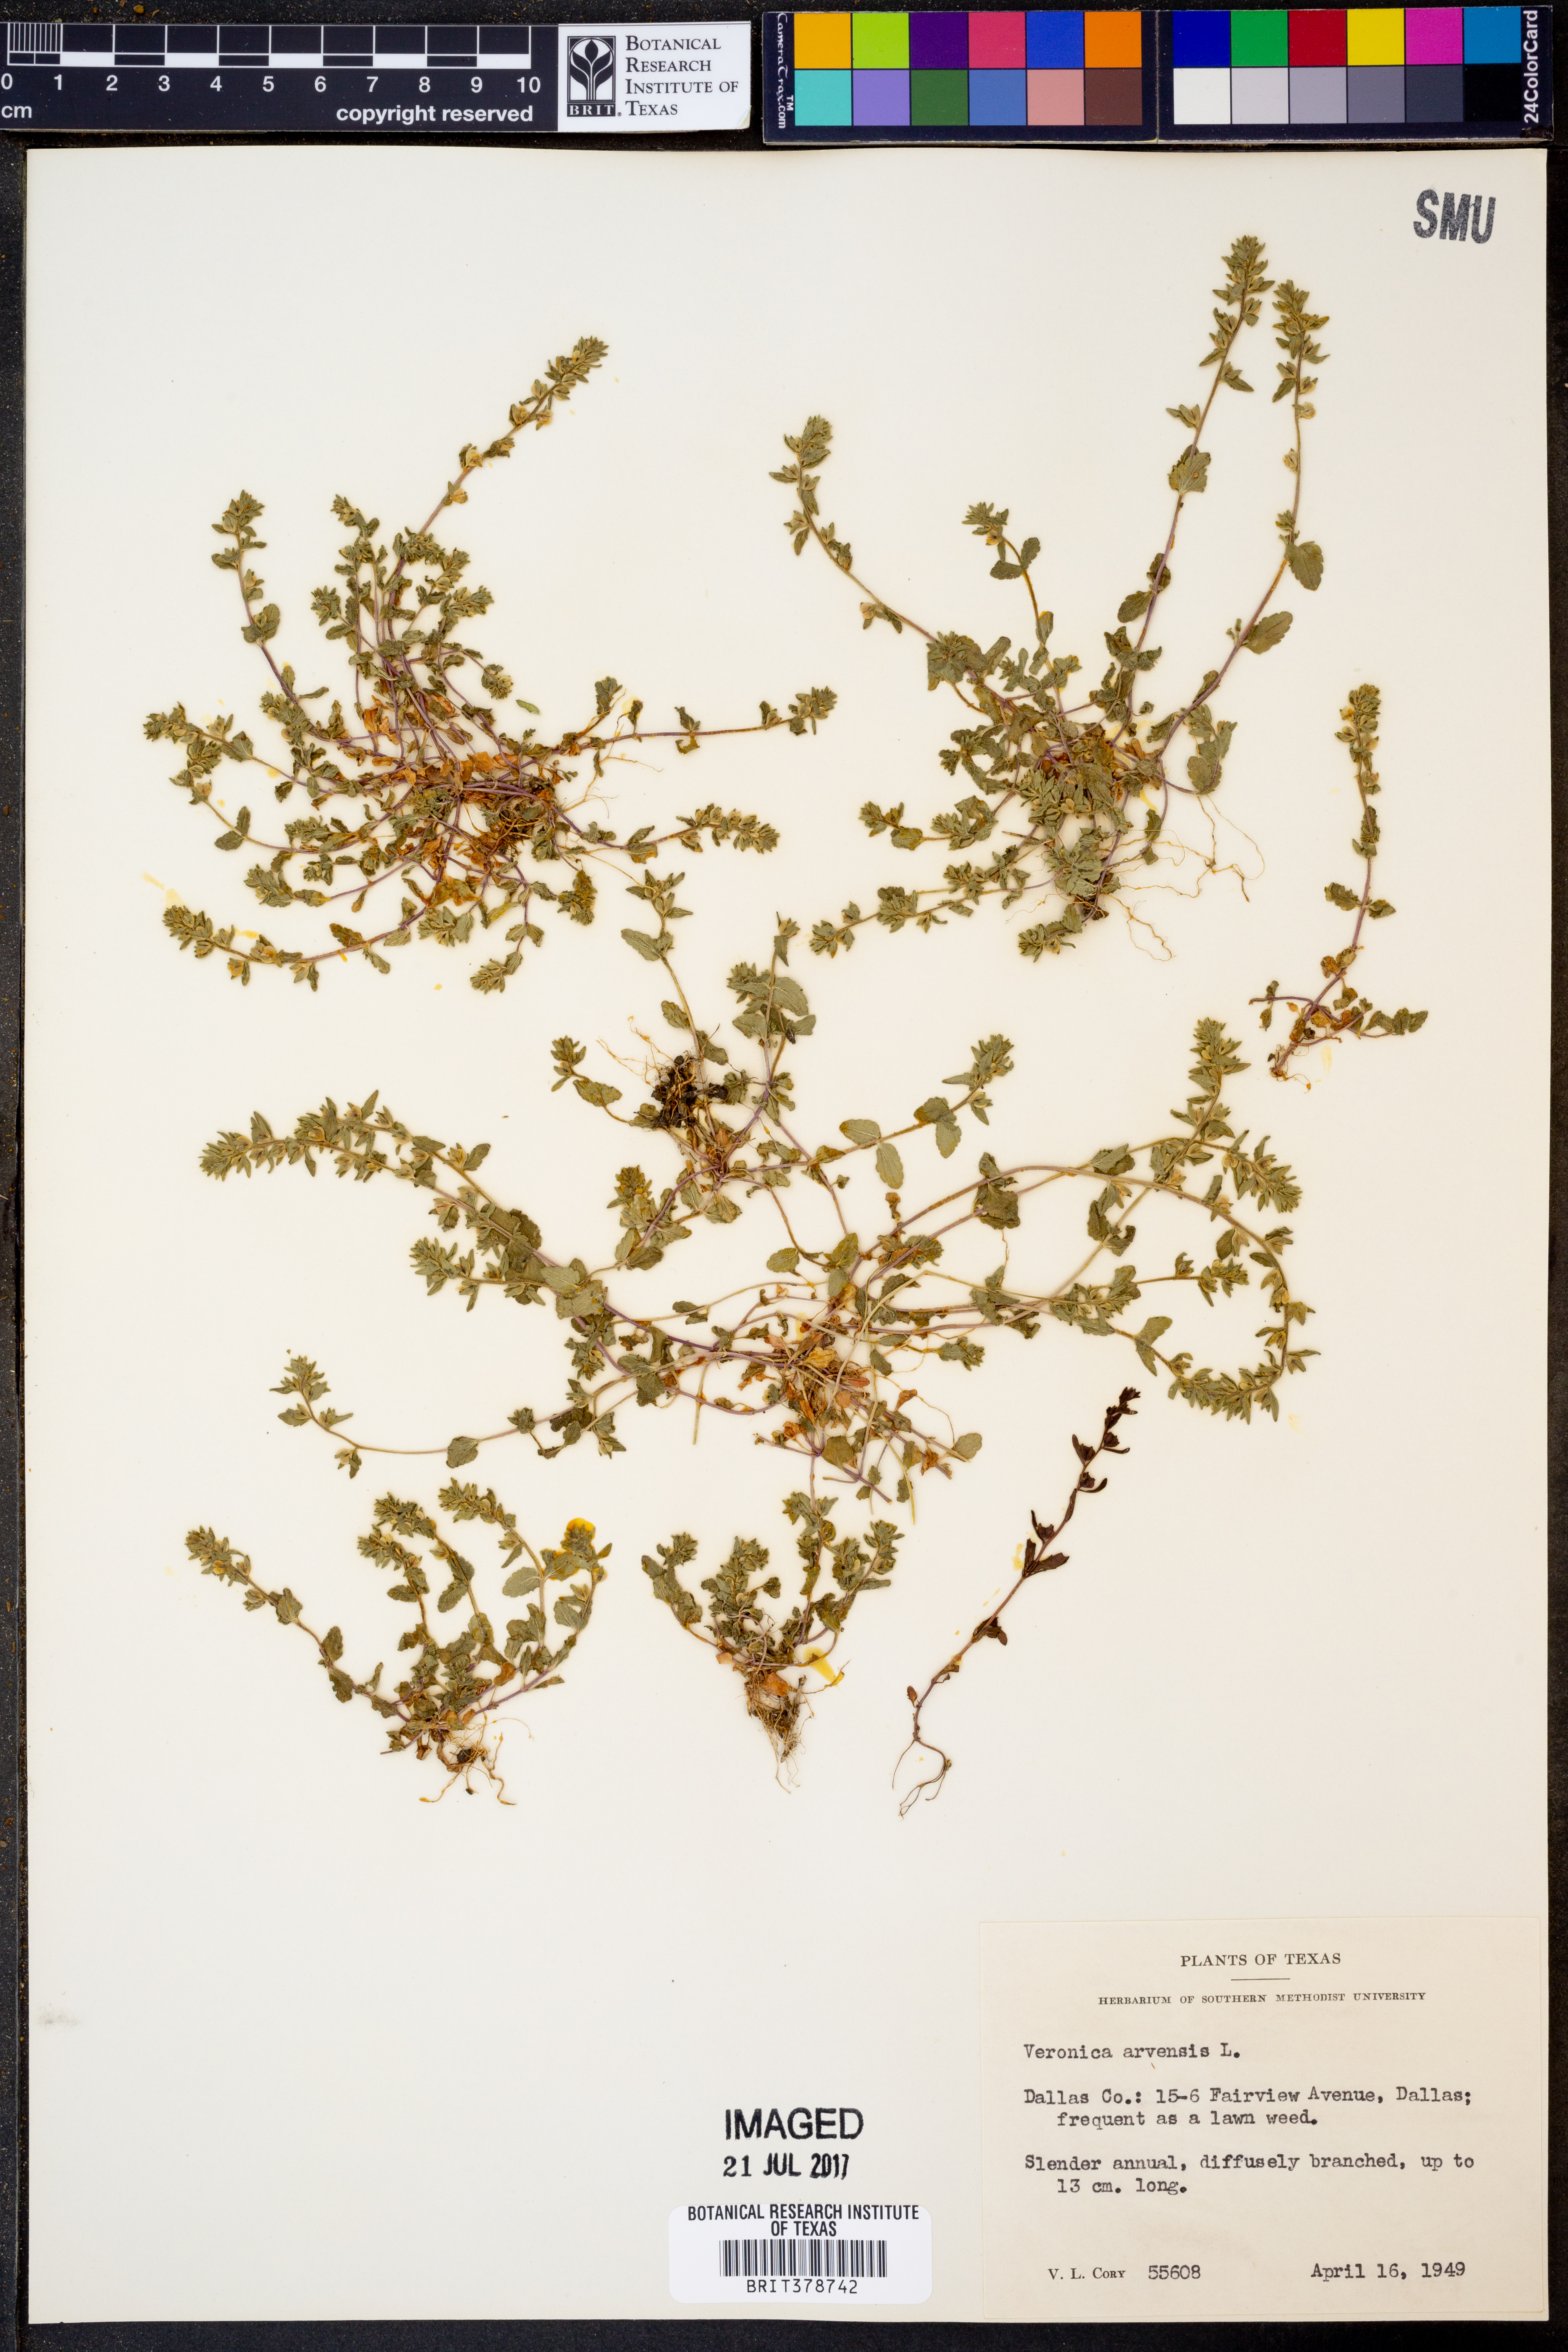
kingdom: Plantae
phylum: Tracheophyta
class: Magnoliopsida
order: Lamiales
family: Plantaginaceae
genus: Veronica
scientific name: Veronica arvensis
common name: Corn speedwell
